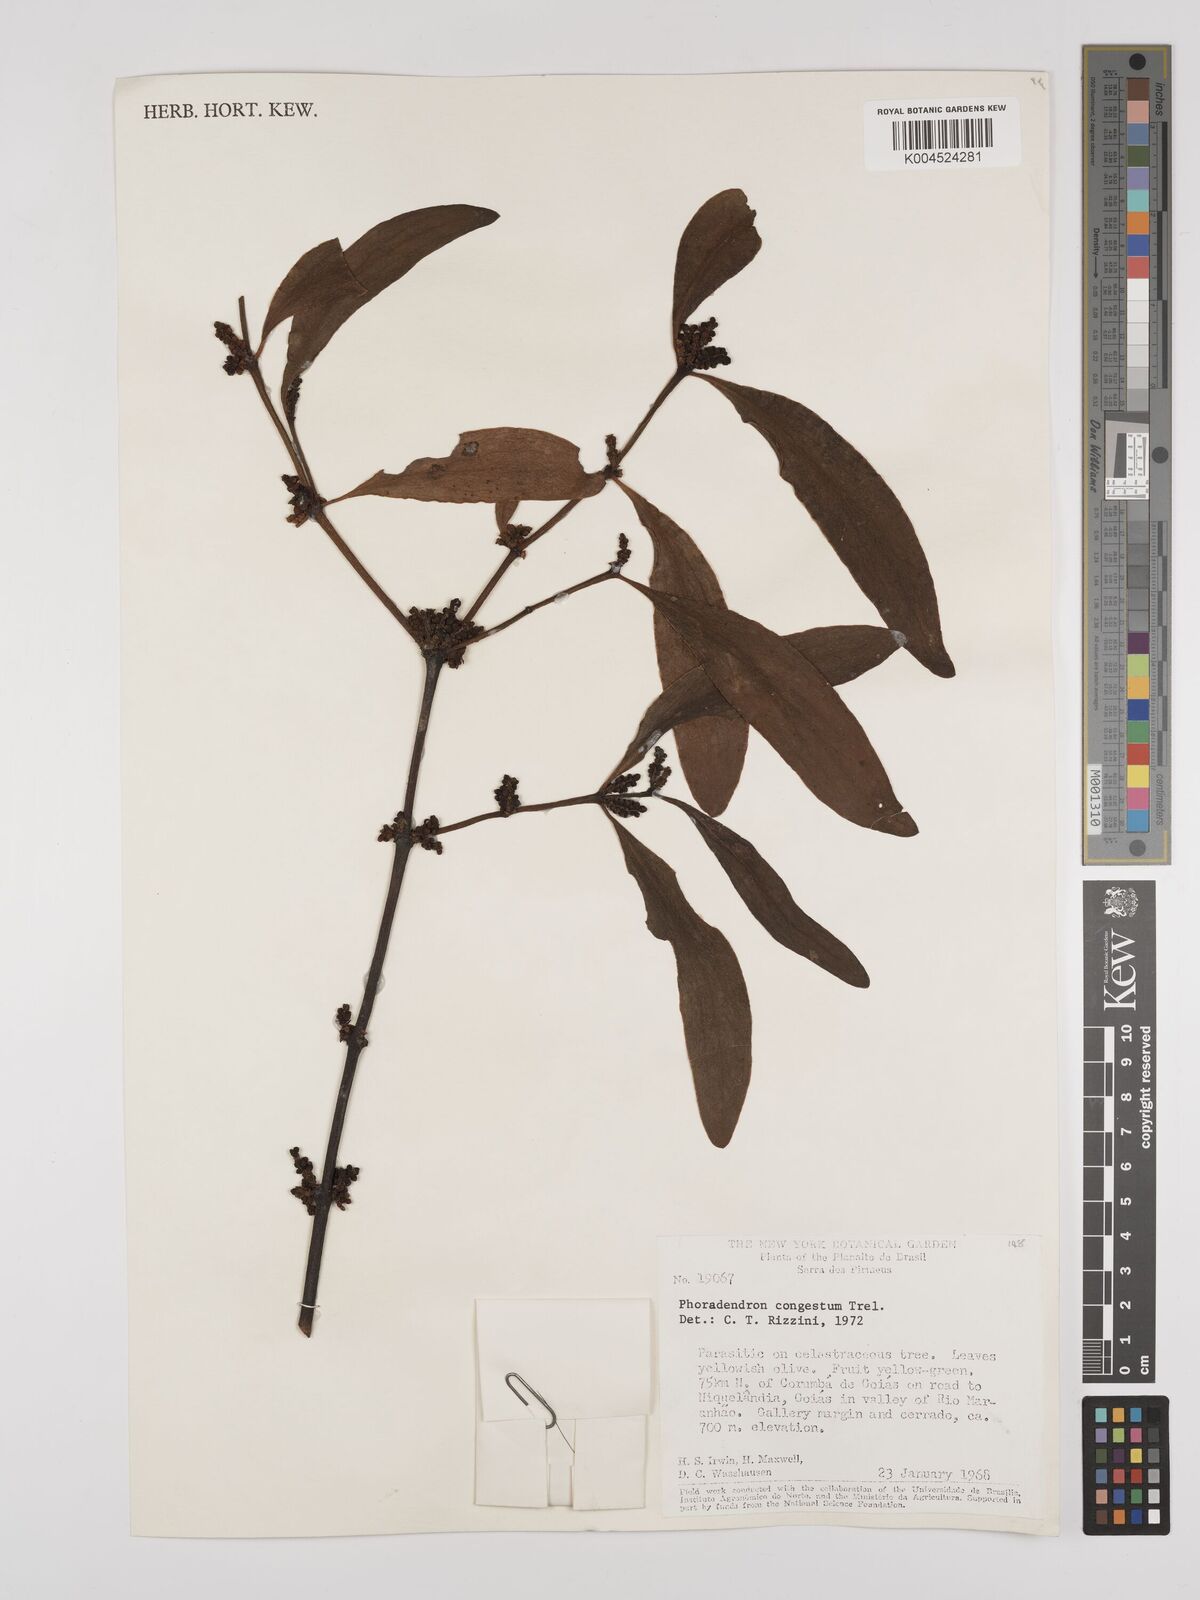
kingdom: Plantae
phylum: Tracheophyta
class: Magnoliopsida
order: Santalales
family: Viscaceae
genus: Phoradendron
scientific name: Phoradendron congestum
